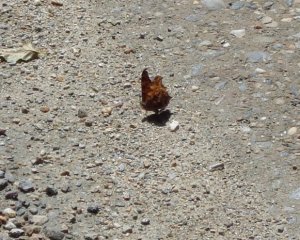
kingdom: Animalia
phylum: Arthropoda
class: Insecta
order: Lepidoptera
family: Nymphalidae
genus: Polygonia
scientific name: Polygonia comma
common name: Eastern Comma
